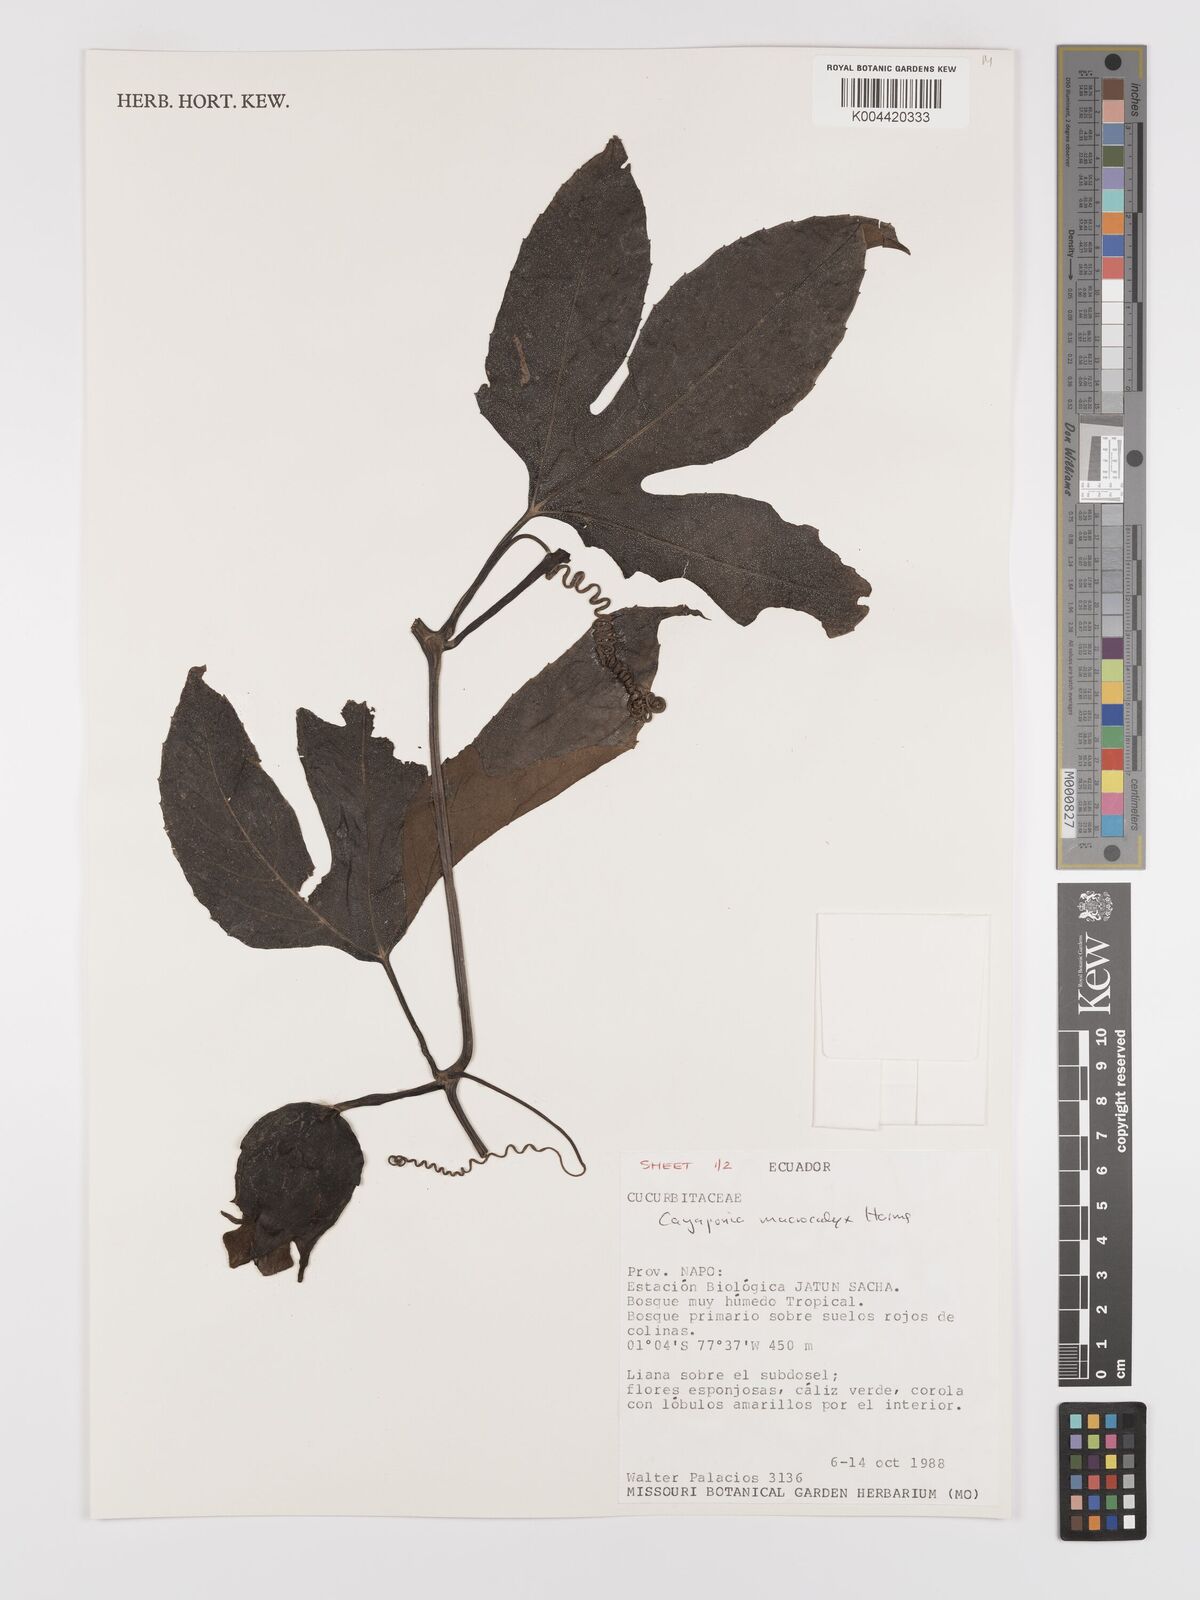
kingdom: Plantae
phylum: Tracheophyta
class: Magnoliopsida
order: Cucurbitales
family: Cucurbitaceae
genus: Cayaponia
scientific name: Cayaponia macrocalyx
